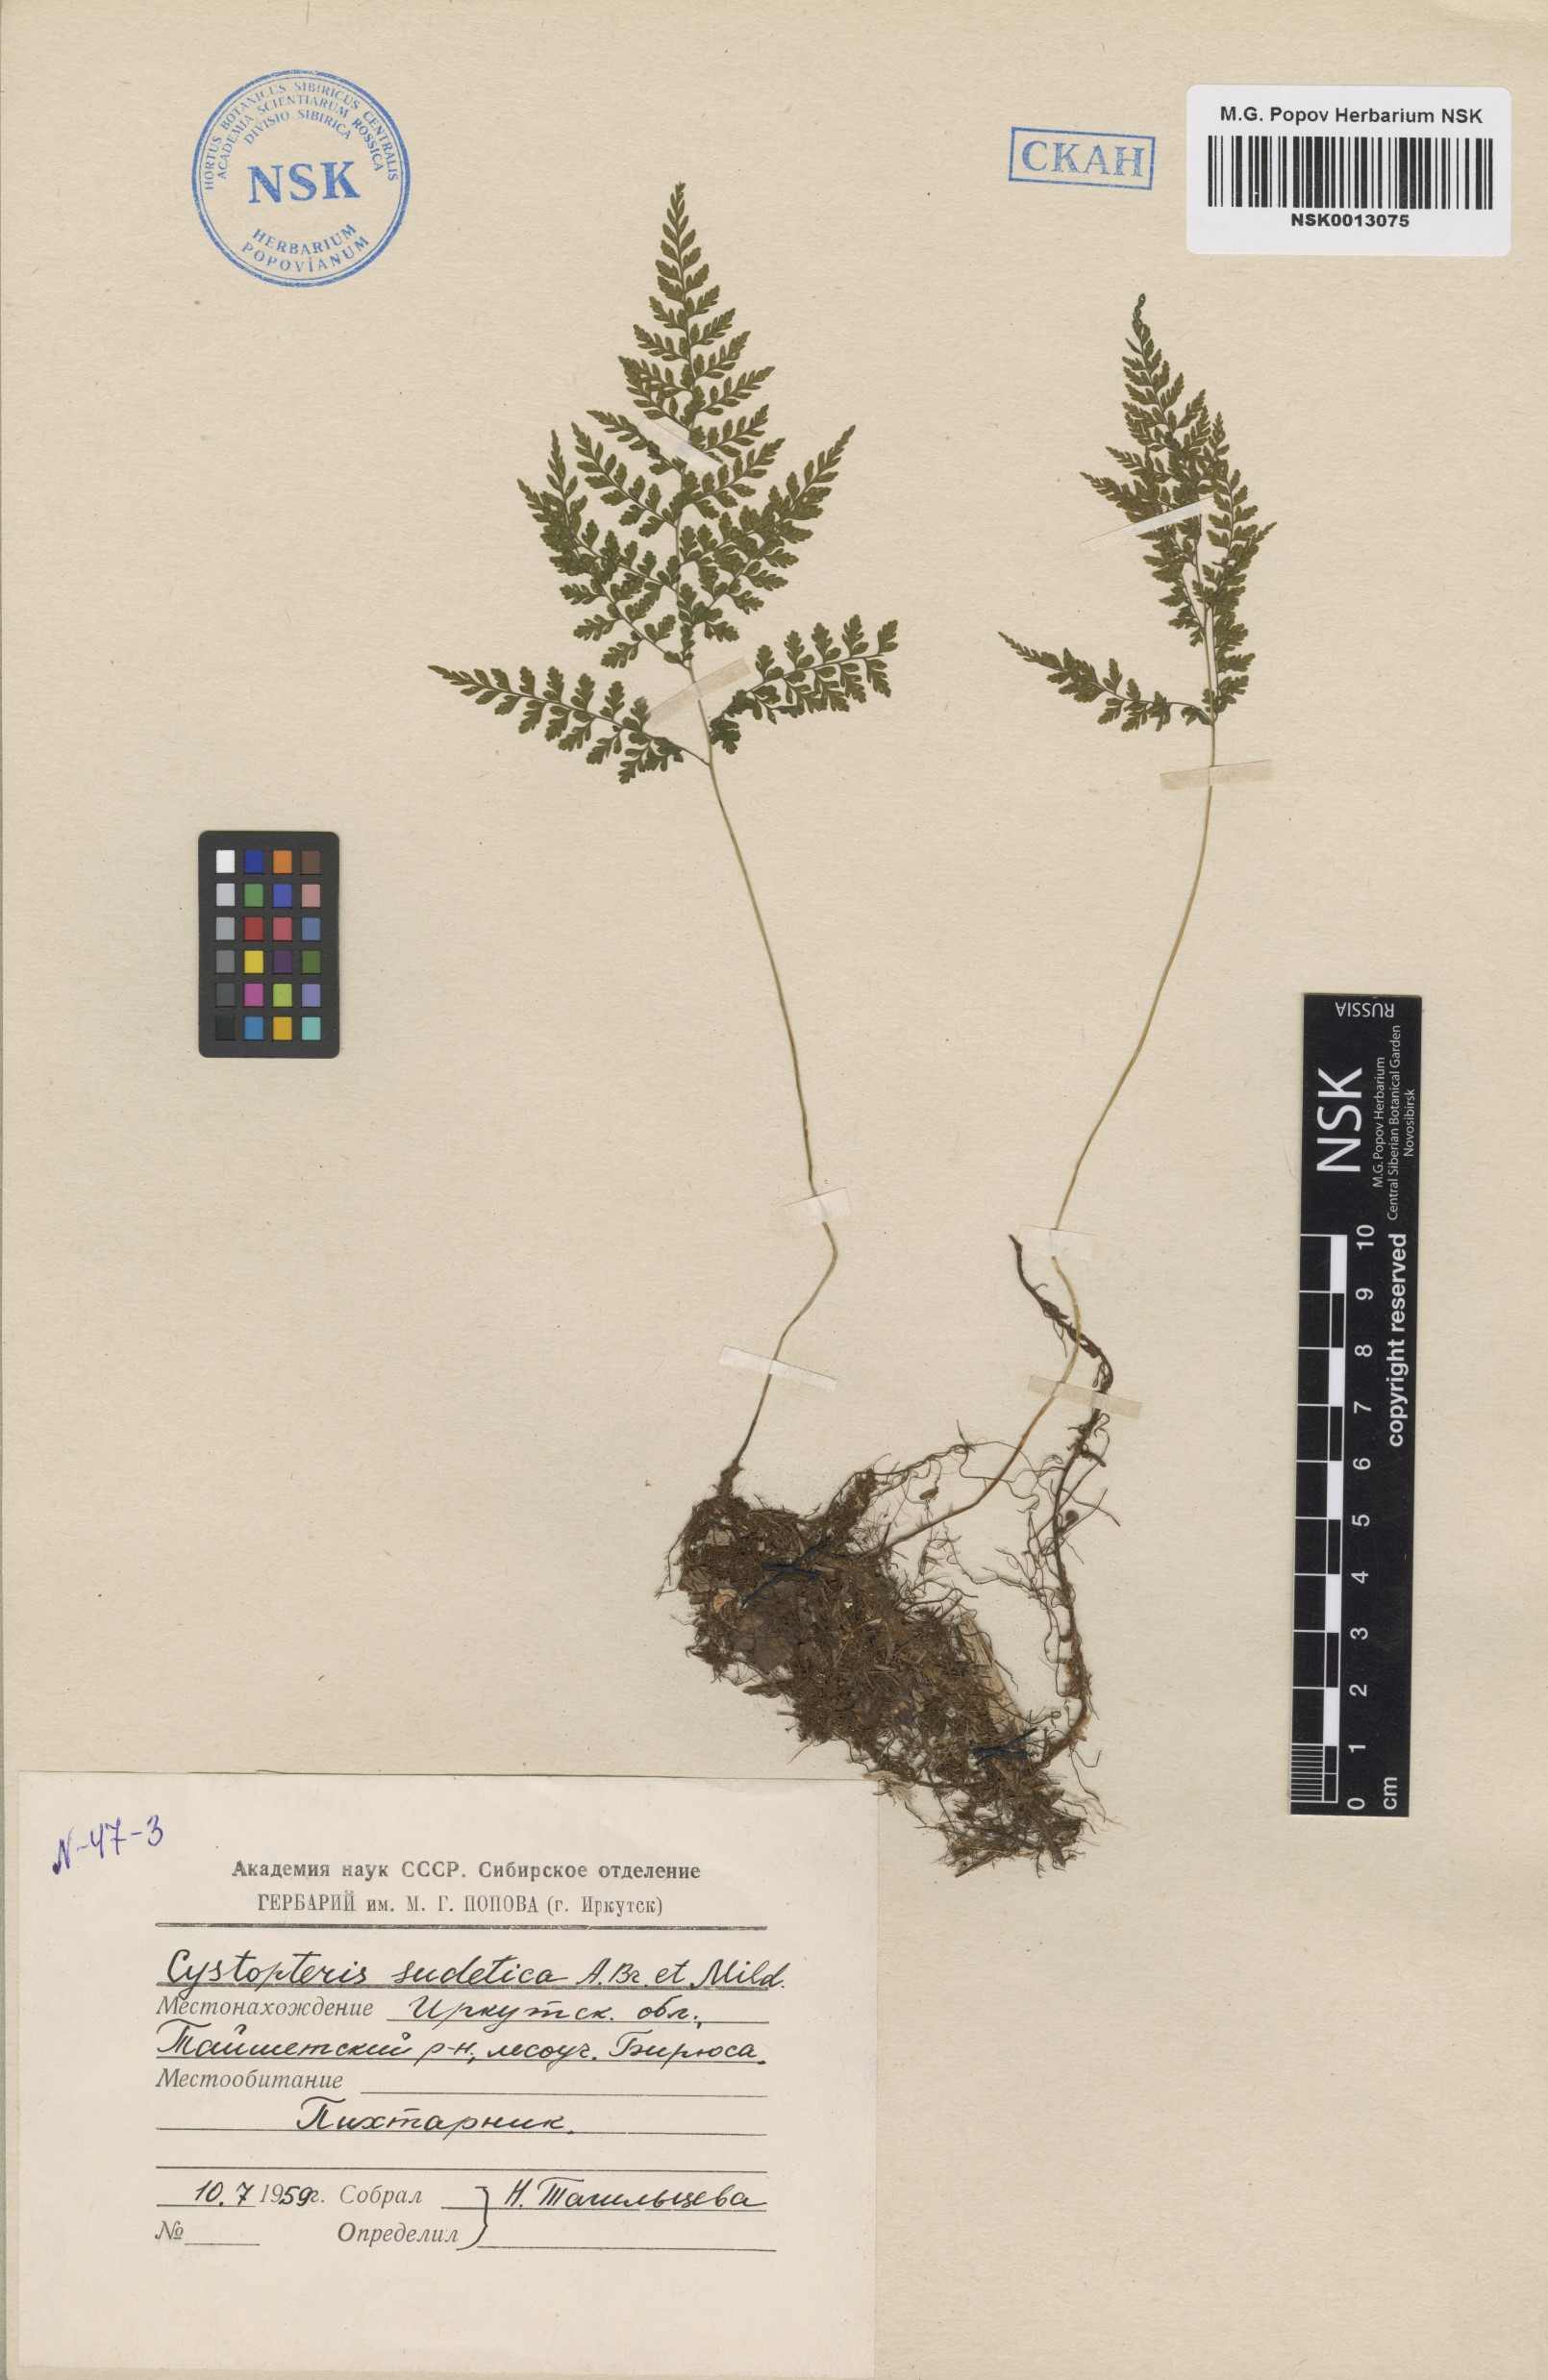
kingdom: Plantae
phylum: Tracheophyta
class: Polypodiopsida
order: Polypodiales
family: Cystopteridaceae
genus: Cystopteris
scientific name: Cystopteris sudetica
